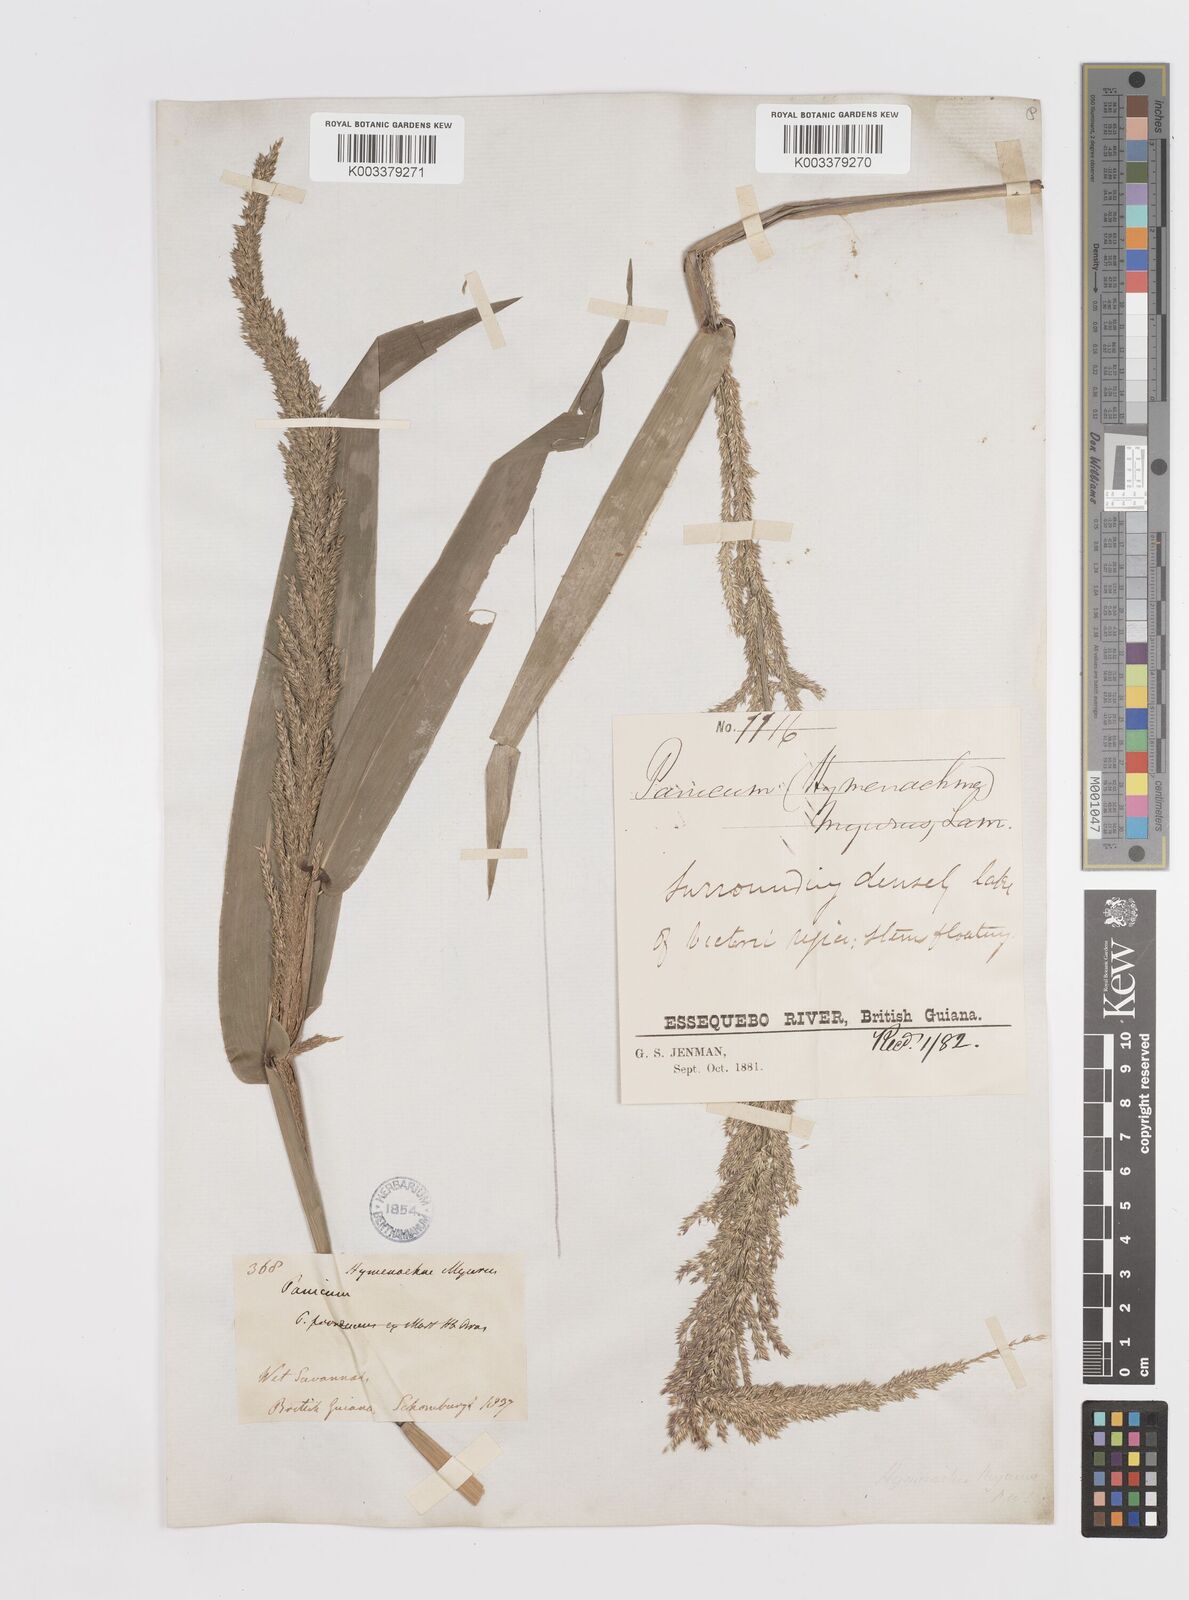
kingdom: Plantae
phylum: Tracheophyta
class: Liliopsida
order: Poales
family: Poaceae
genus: Hymenachne
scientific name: Hymenachne amplexicaulis
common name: Olive hymenachne
